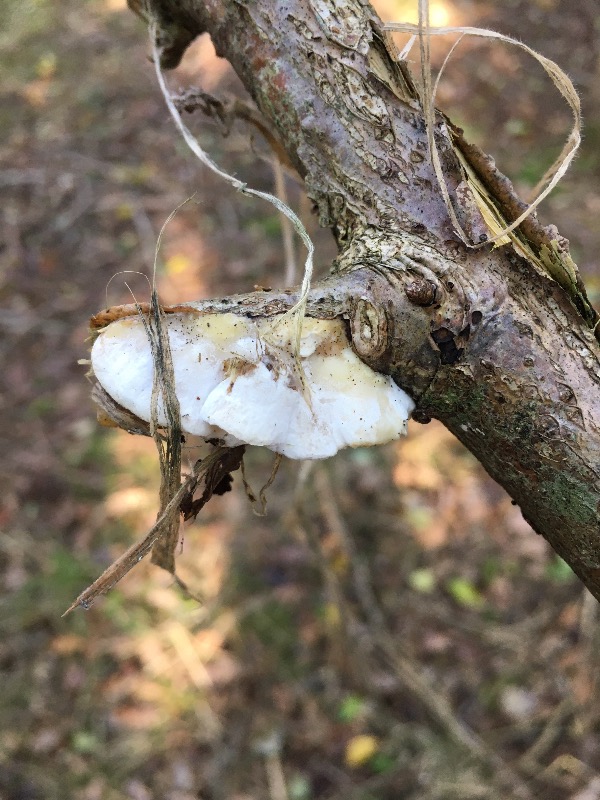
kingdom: Fungi
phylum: Basidiomycota
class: Agaricomycetes
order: Polyporales
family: Irpicaceae
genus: Byssomerulius
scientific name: Byssomerulius corium
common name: læder-åresvamp
